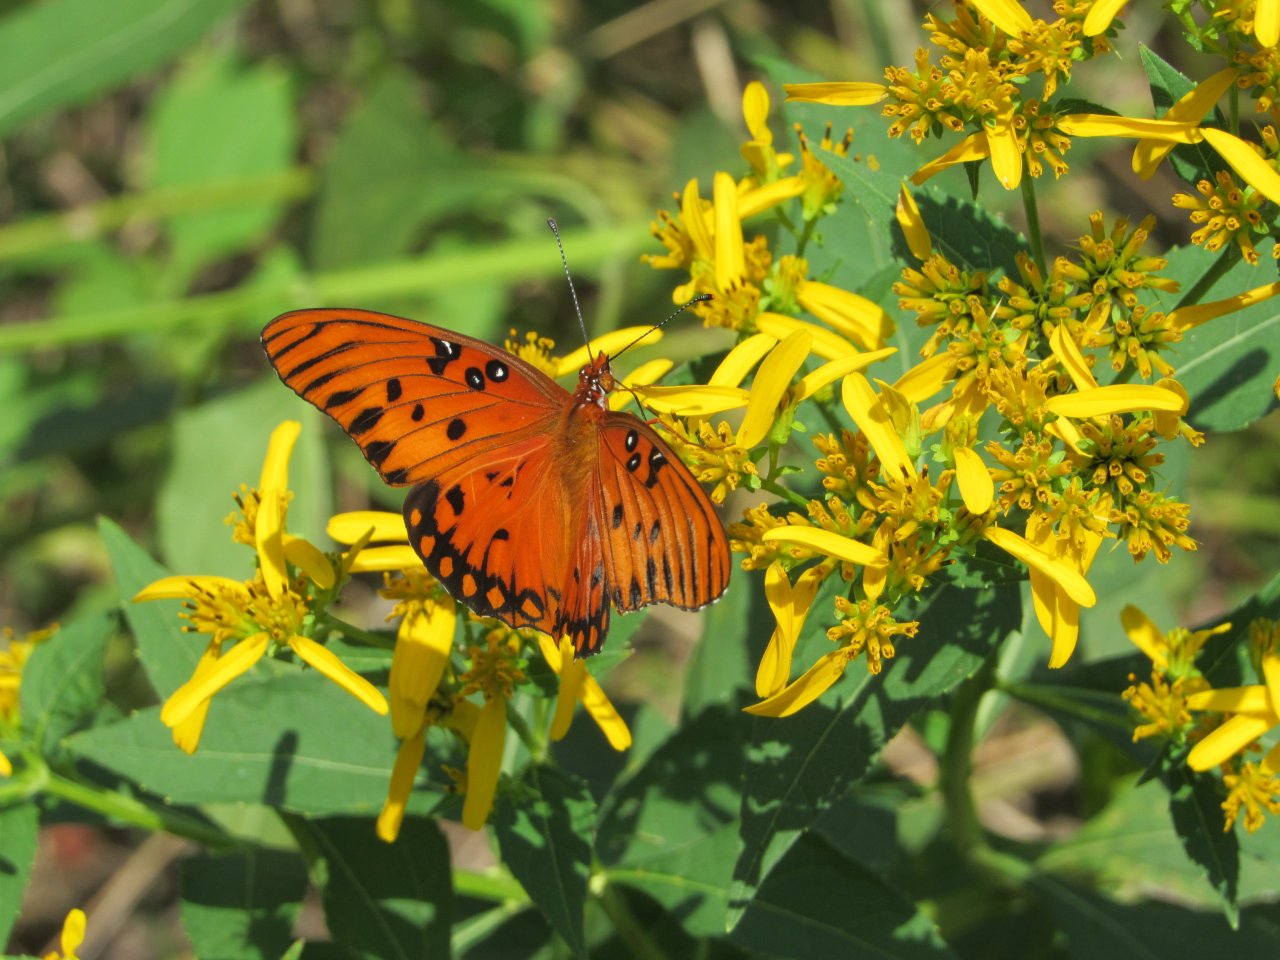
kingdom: Animalia
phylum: Arthropoda
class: Insecta
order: Lepidoptera
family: Nymphalidae
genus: Dione
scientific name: Dione vanillae
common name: Gulf Fritillary
